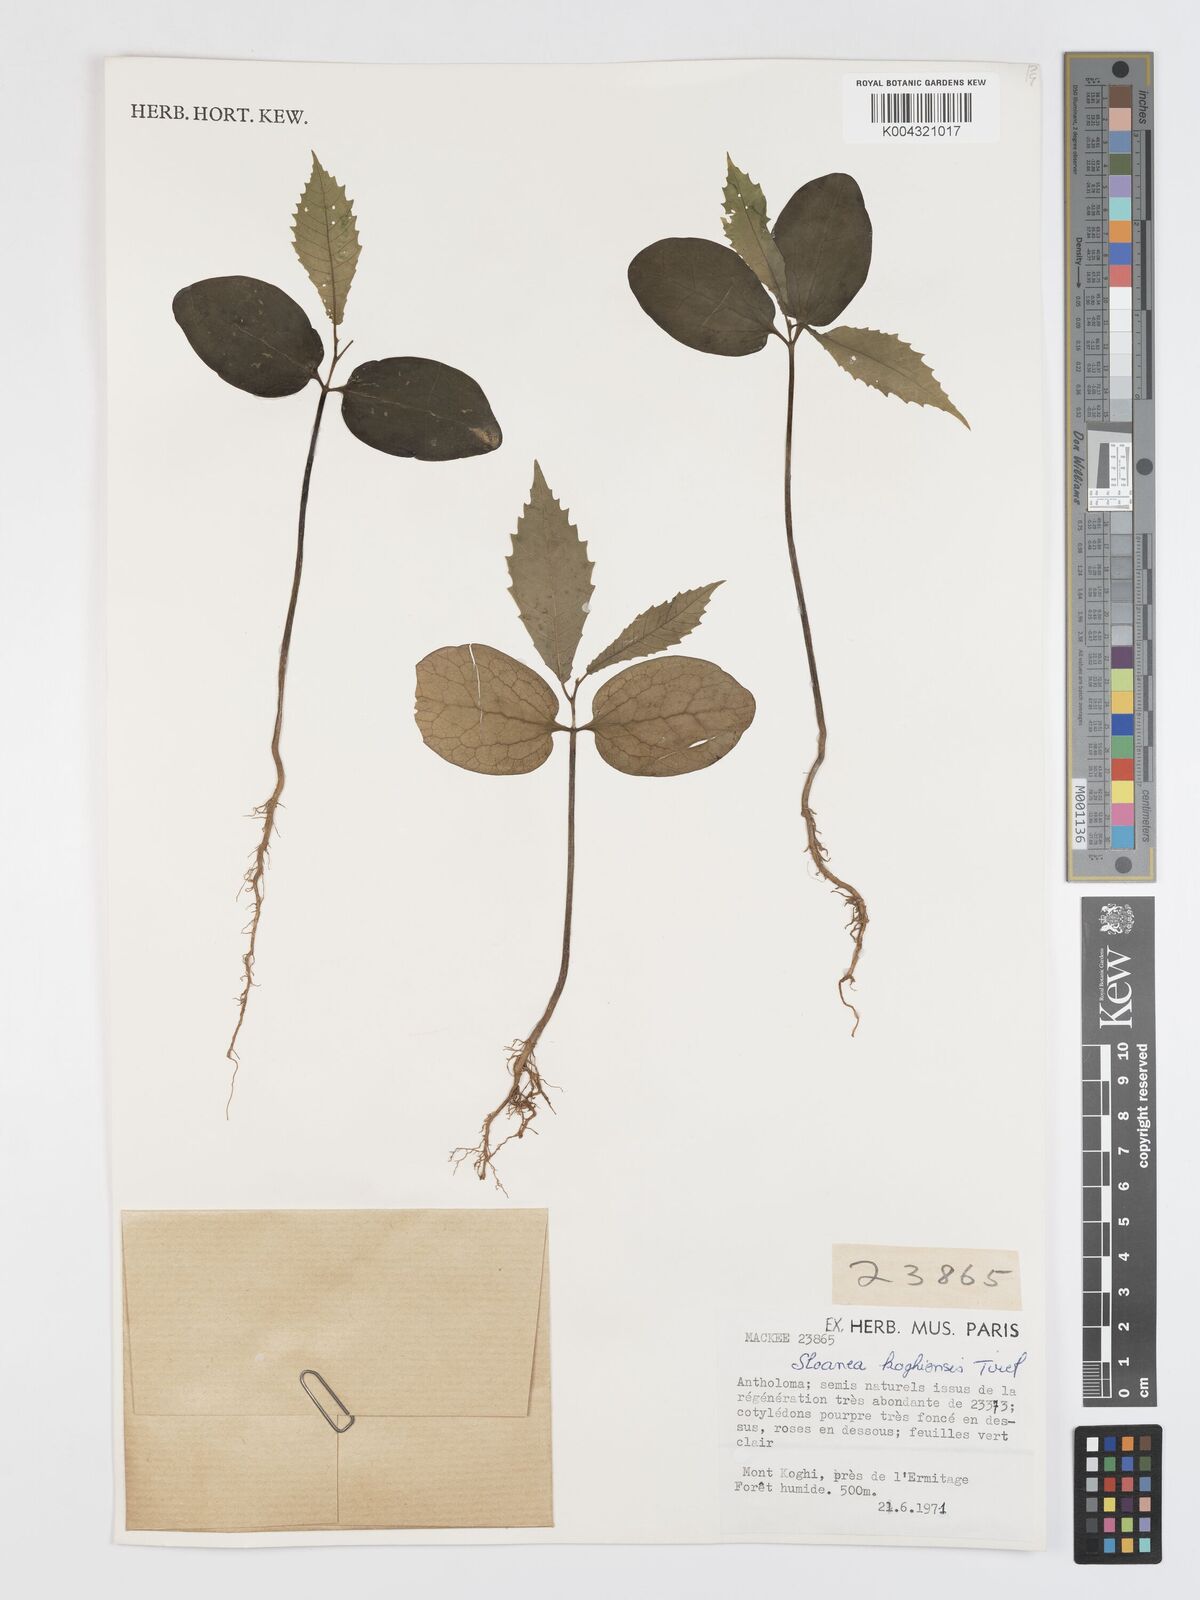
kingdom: Plantae
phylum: Tracheophyta
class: Magnoliopsida
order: Oxalidales
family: Elaeocarpaceae
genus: Sloanea
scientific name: Sloanea koghiensis
